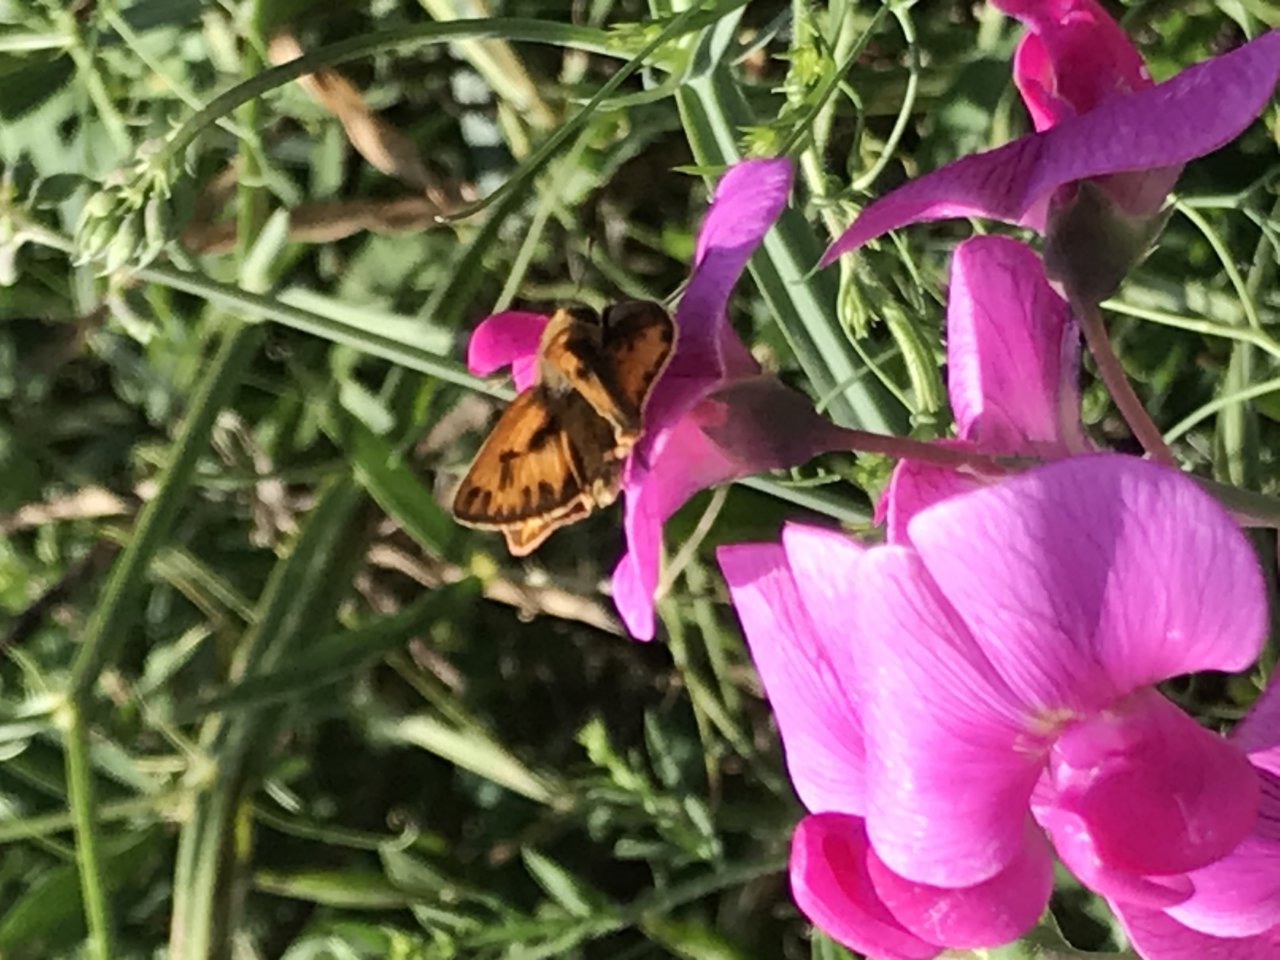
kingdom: Animalia
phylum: Arthropoda
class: Insecta
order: Lepidoptera
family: Hesperiidae
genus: Hylephila
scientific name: Hylephila phyleus
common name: Fiery Skipper
